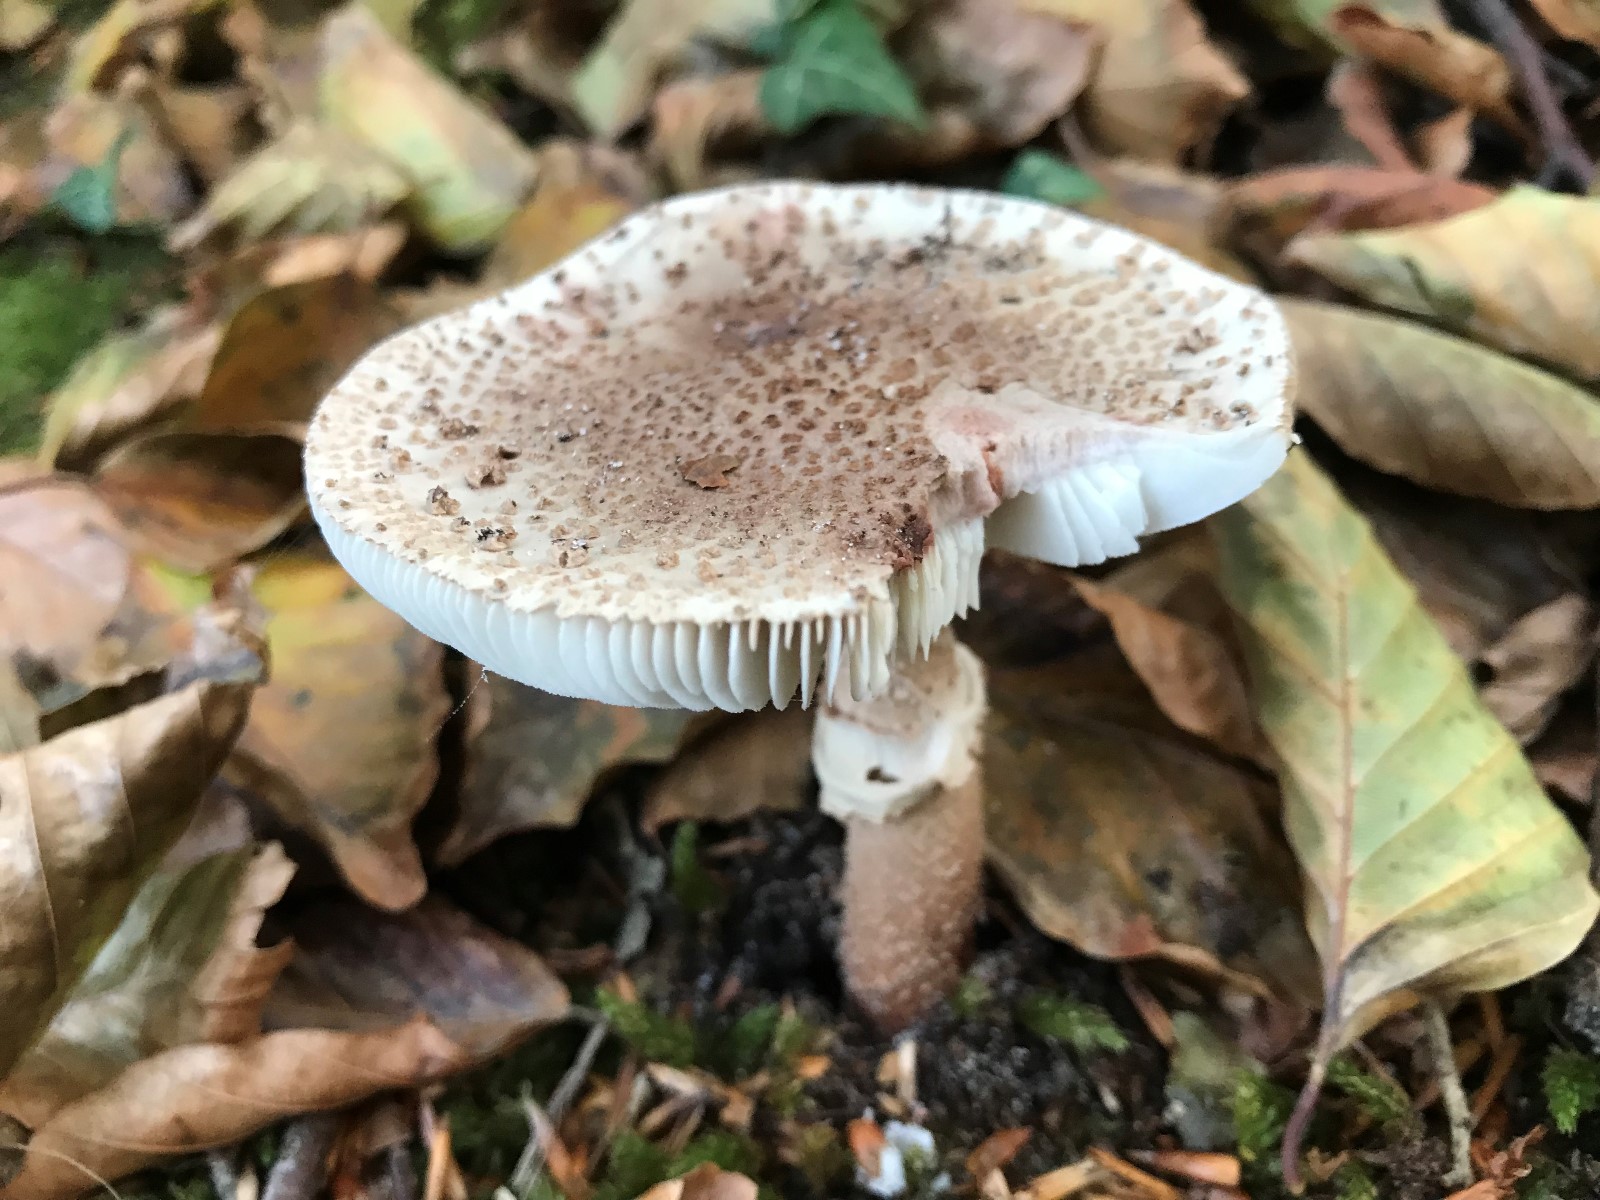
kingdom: Fungi
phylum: Basidiomycota
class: Agaricomycetes
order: Agaricales
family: Amanitaceae
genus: Amanita
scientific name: Amanita rubescens
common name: rødmende fluesvamp
